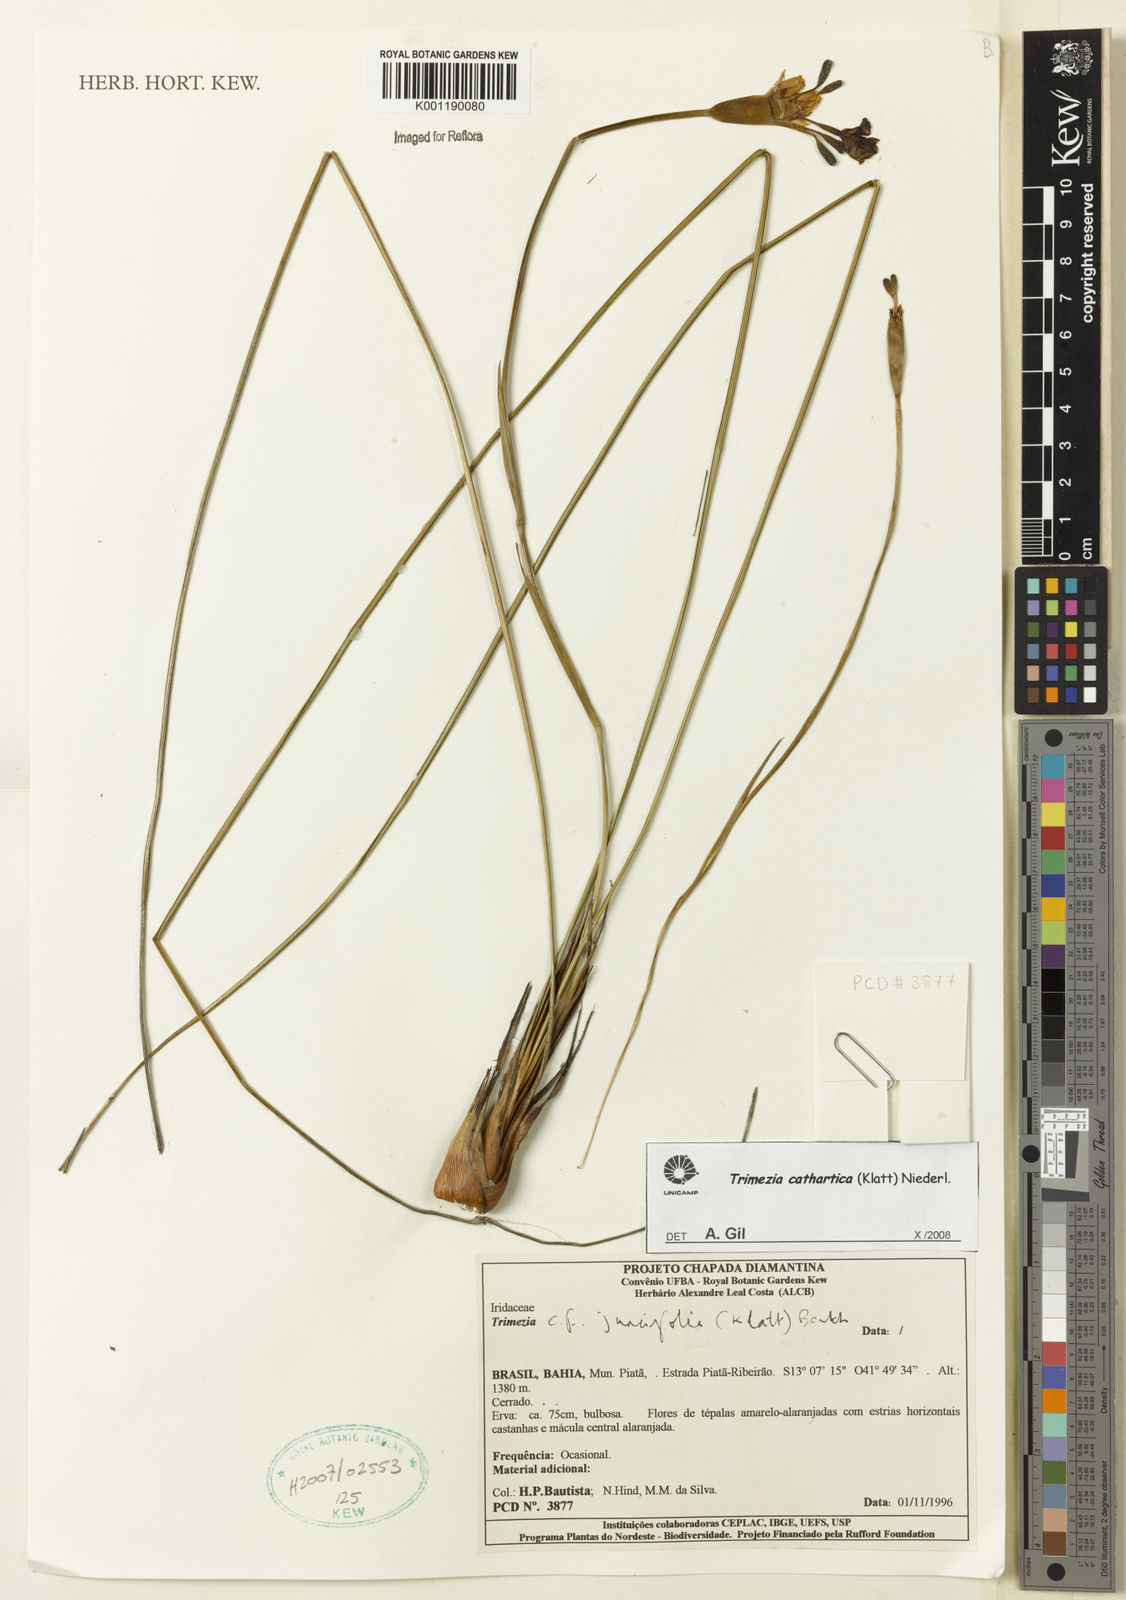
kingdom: Plantae
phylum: Tracheophyta
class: Liliopsida
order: Asparagales
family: Iridaceae
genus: Trimezia
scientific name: Trimezia cathartica
